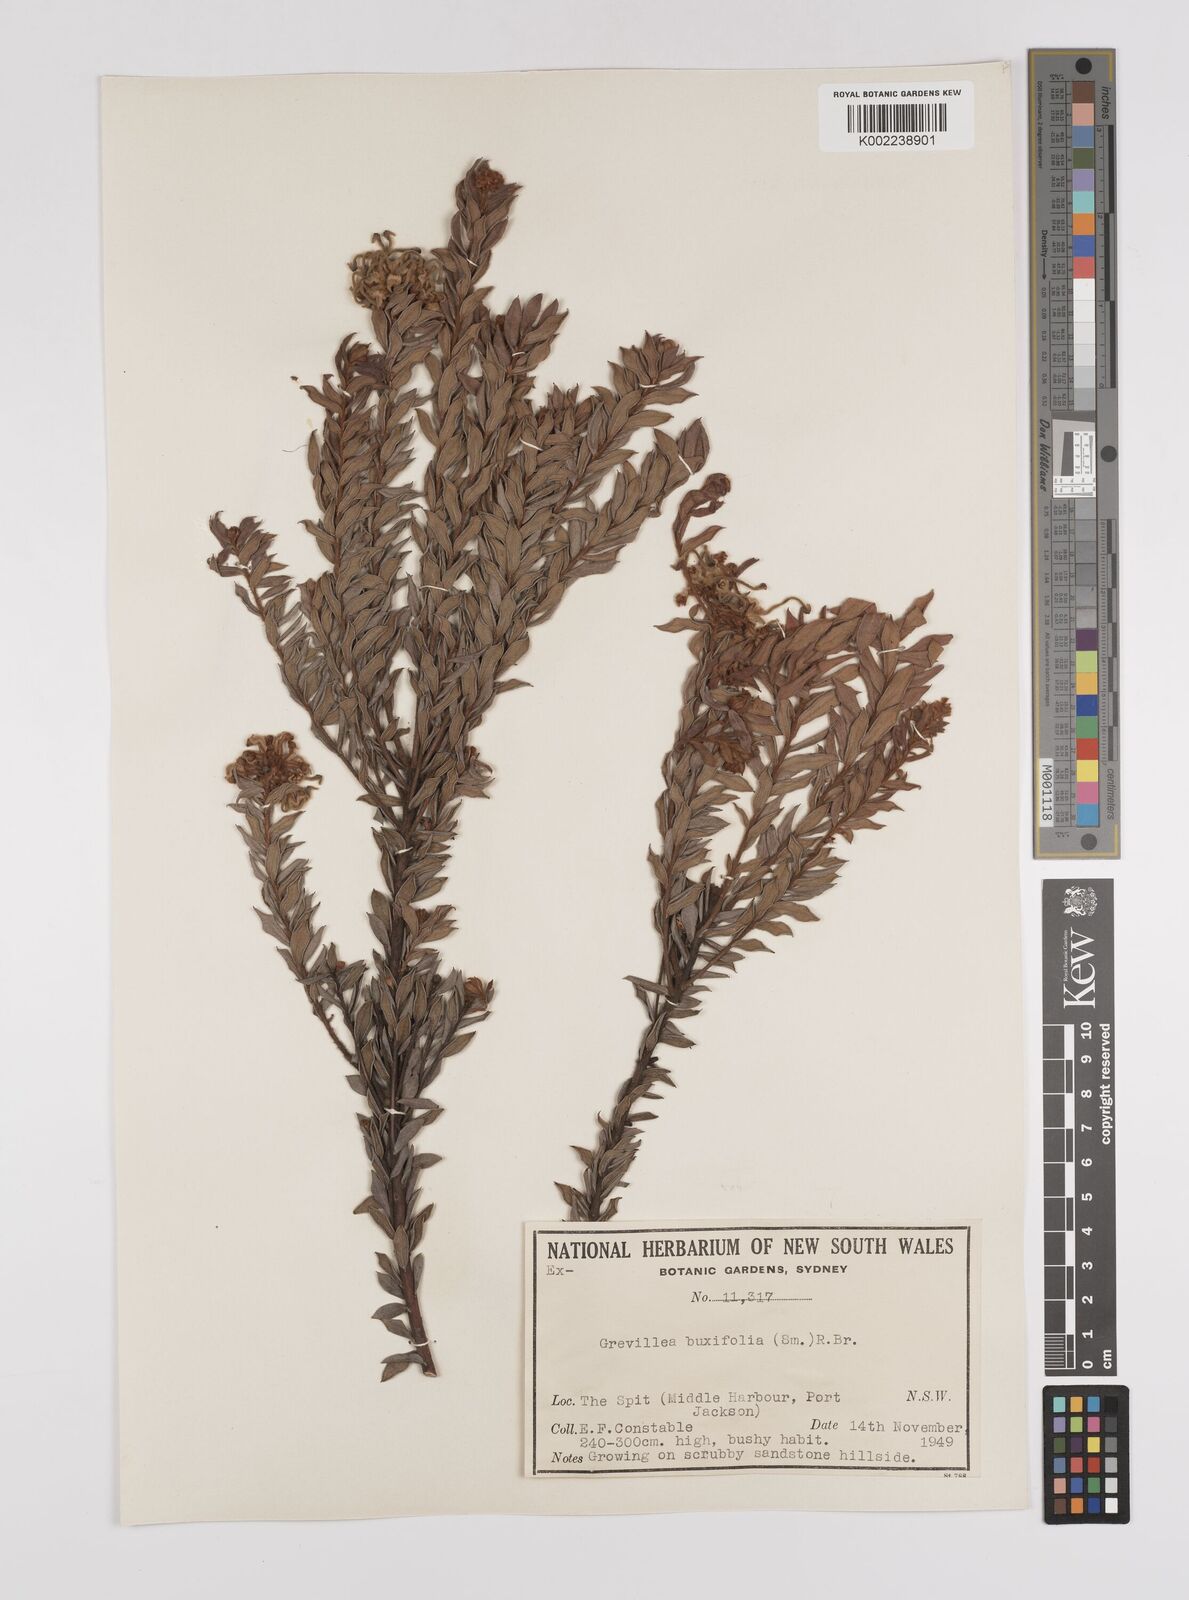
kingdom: Plantae
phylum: Tracheophyta
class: Magnoliopsida
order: Proteales
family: Proteaceae
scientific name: Proteaceae
